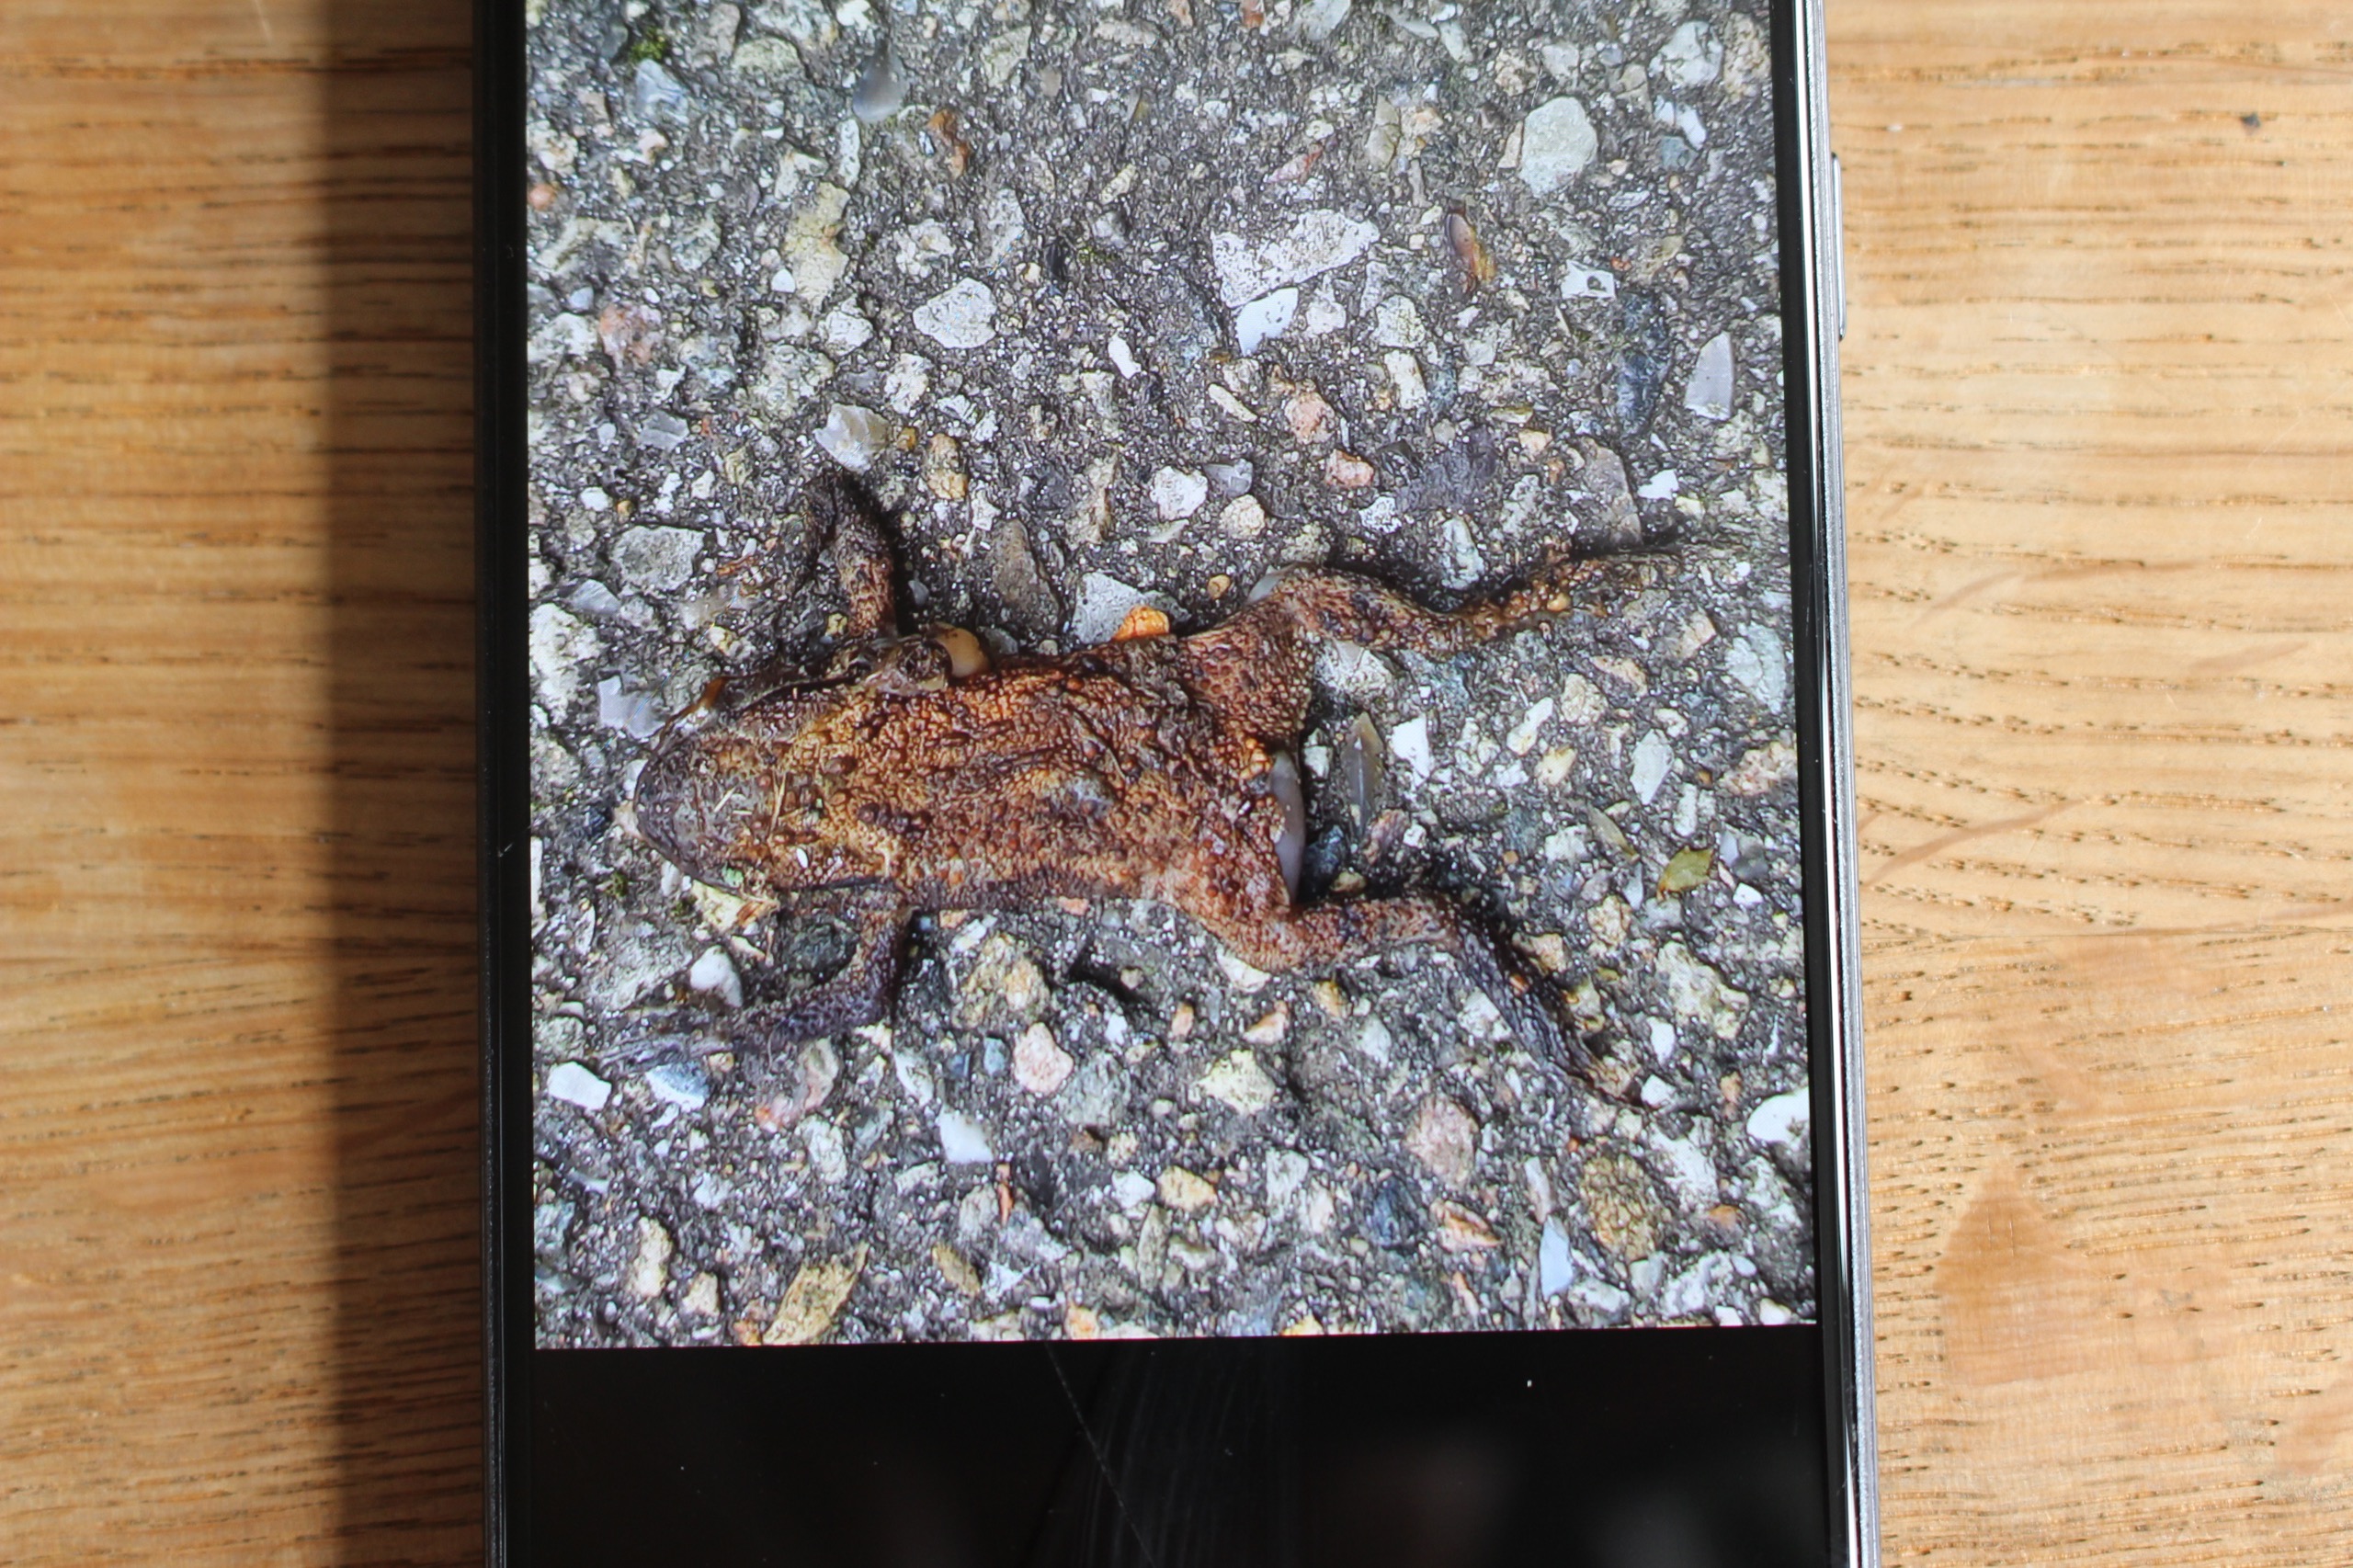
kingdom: Animalia
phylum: Chordata
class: Amphibia
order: Anura
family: Bufonidae
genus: Bufo
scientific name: Bufo bufo
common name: Skrubtudse
